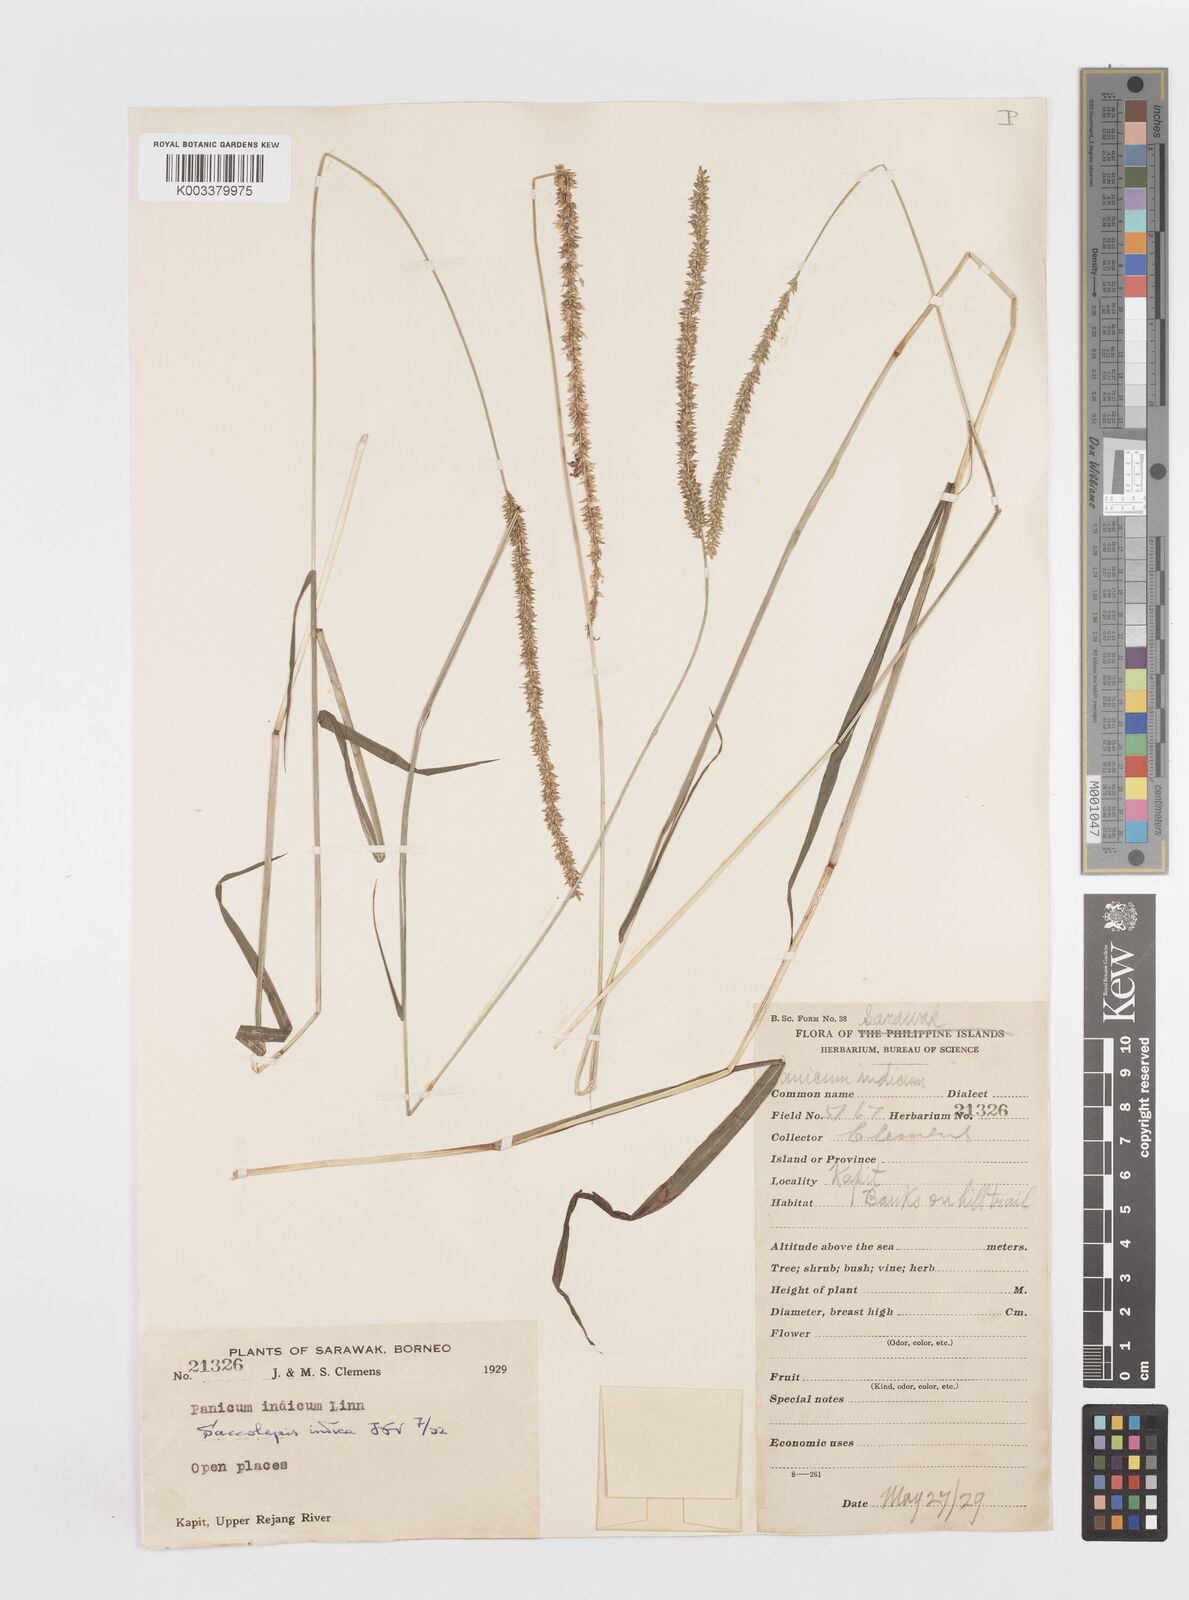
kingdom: Plantae
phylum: Tracheophyta
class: Liliopsida
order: Poales
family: Poaceae
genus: Sacciolepis
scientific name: Sacciolepis indica
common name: Glenwoodgrass
